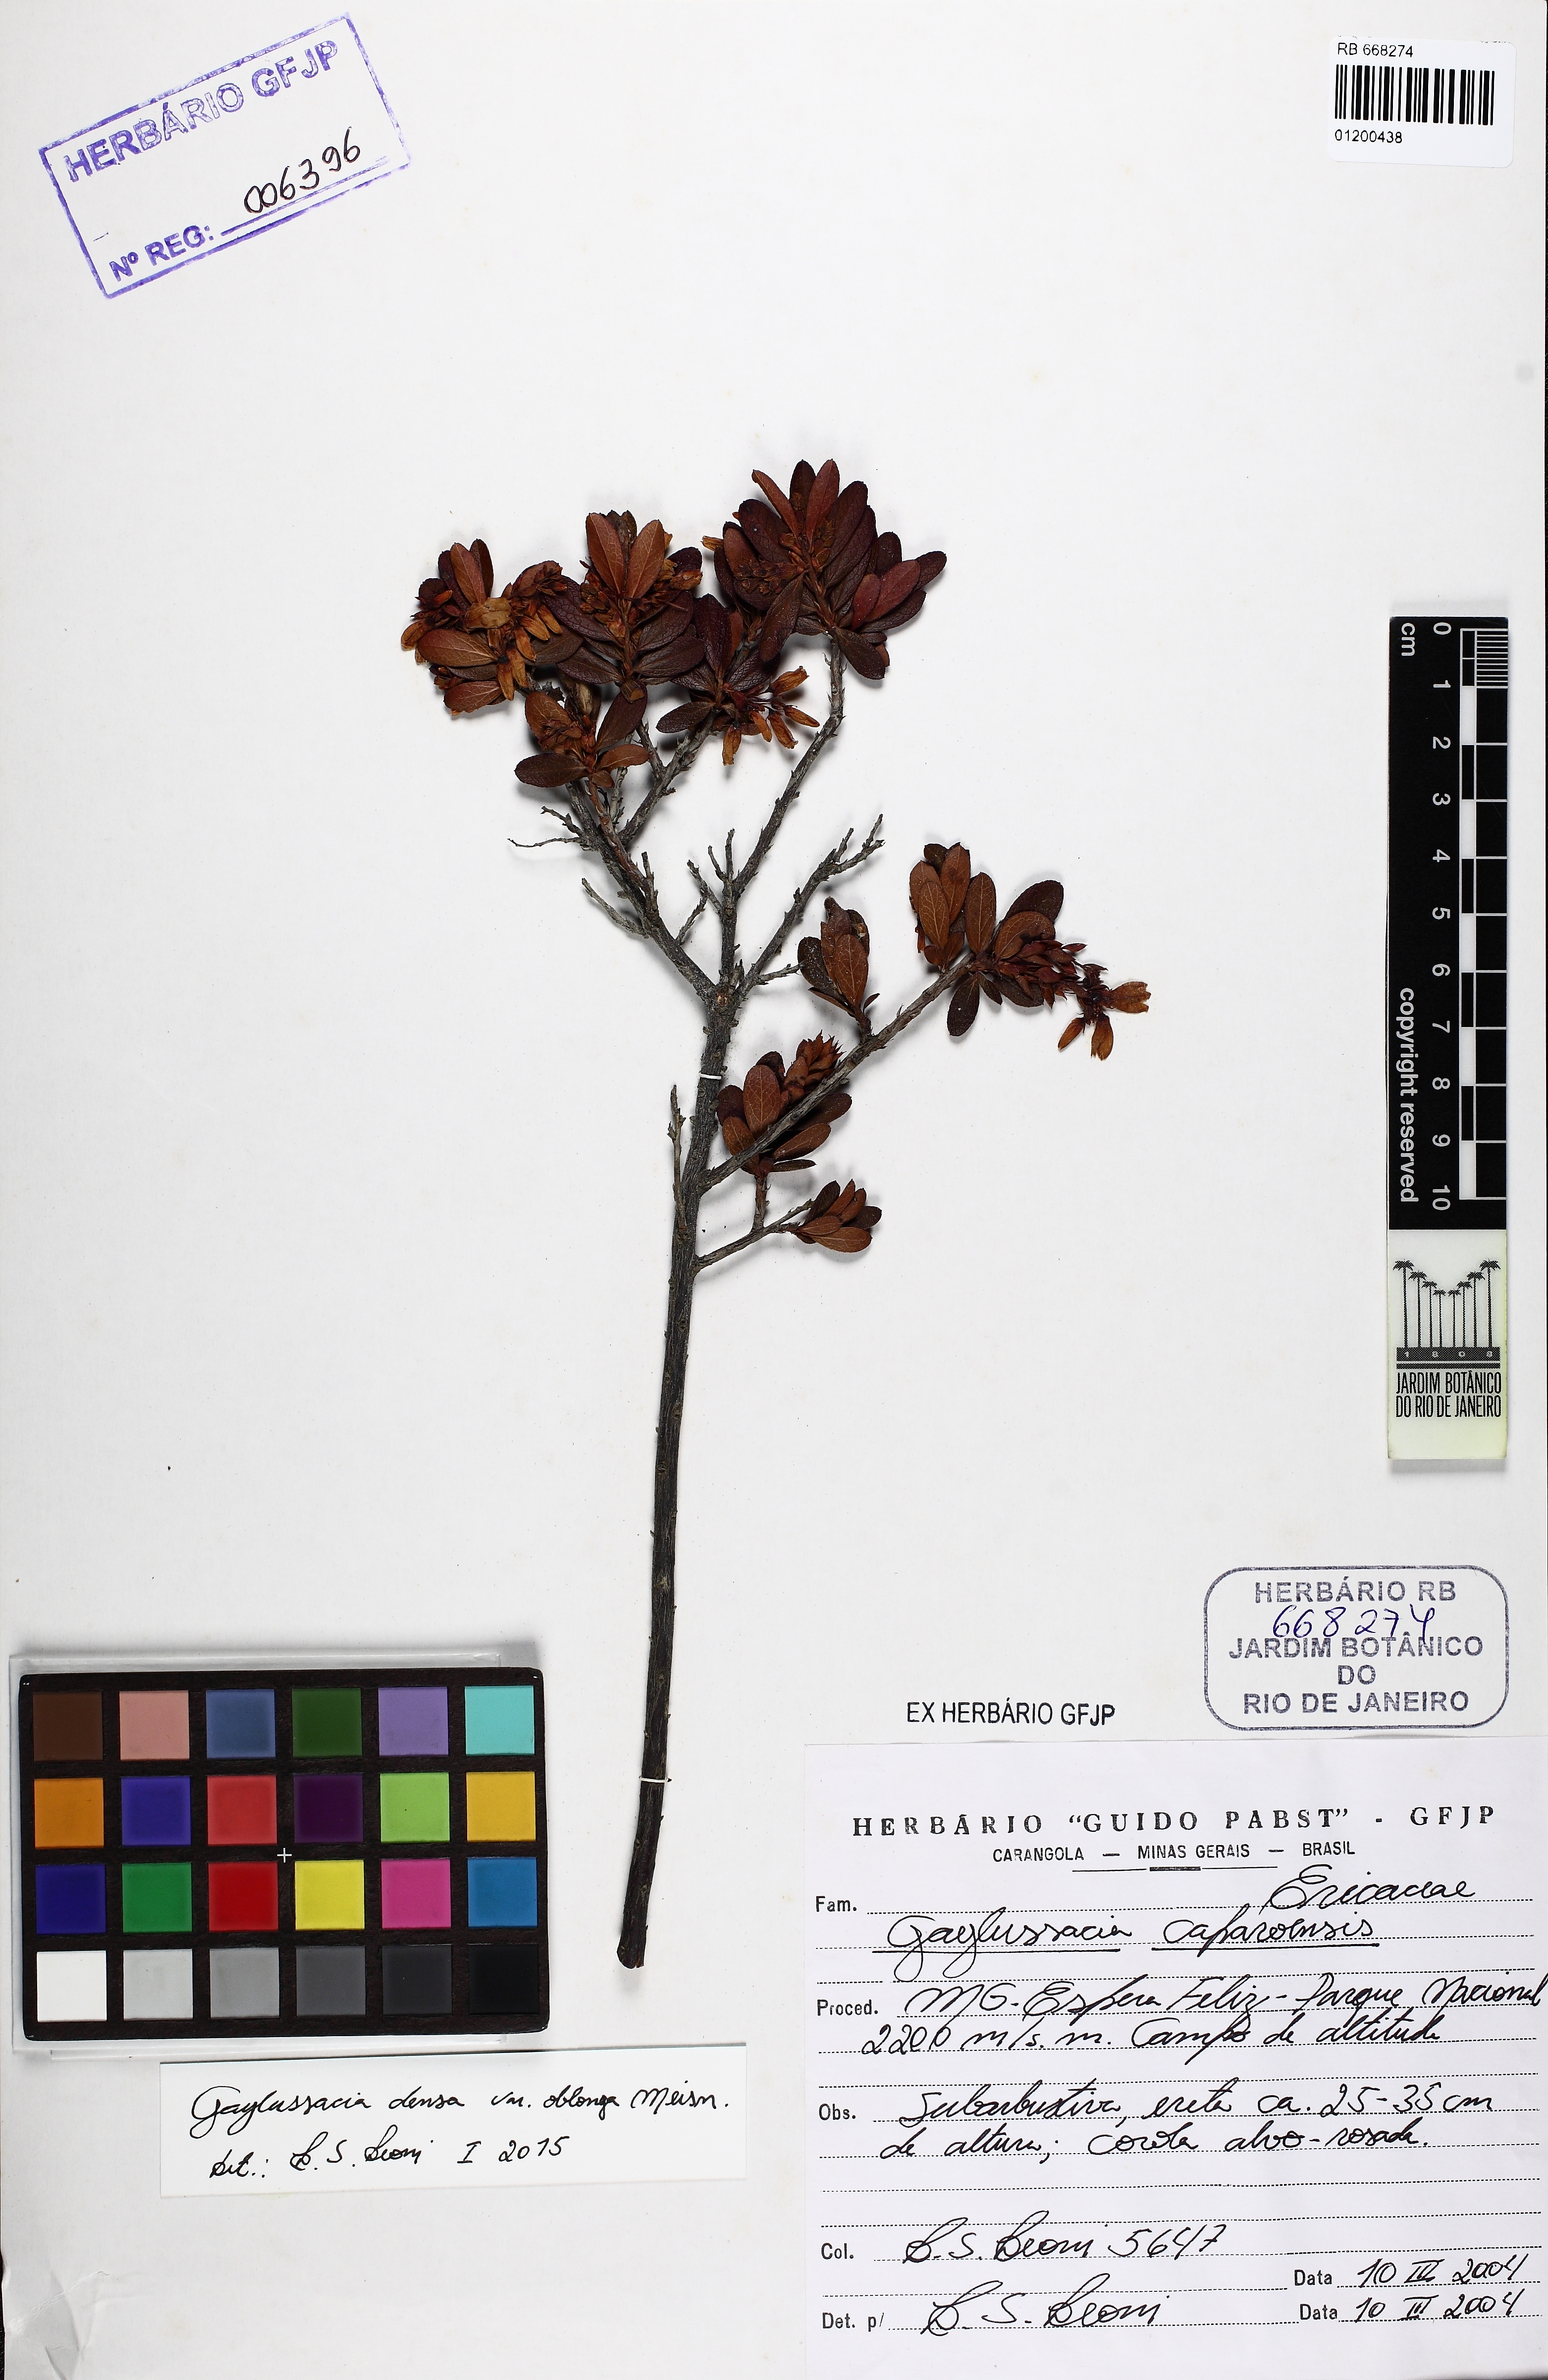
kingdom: Plantae
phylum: Tracheophyta
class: Magnoliopsida
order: Ericales
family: Ericaceae
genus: Gaylussacia
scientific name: Gaylussacia densa
